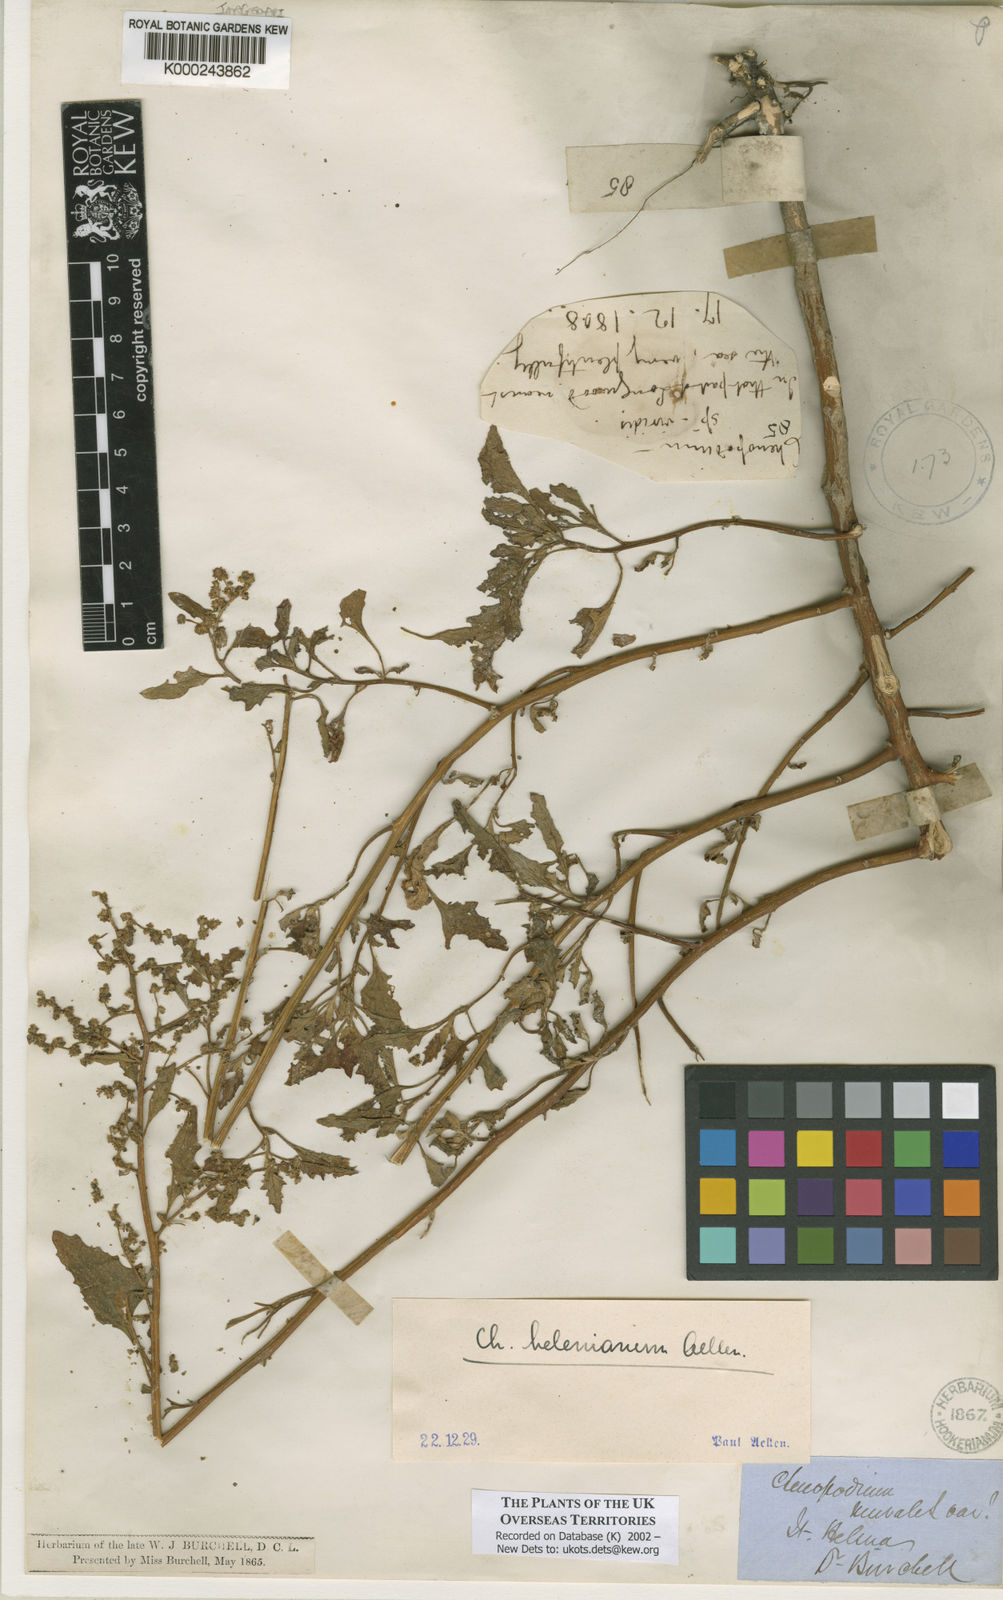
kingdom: Plantae
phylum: Tracheophyta
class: Magnoliopsida
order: Caryophyllales
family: Amaranthaceae
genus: Chenopodium
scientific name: Chenopodium
